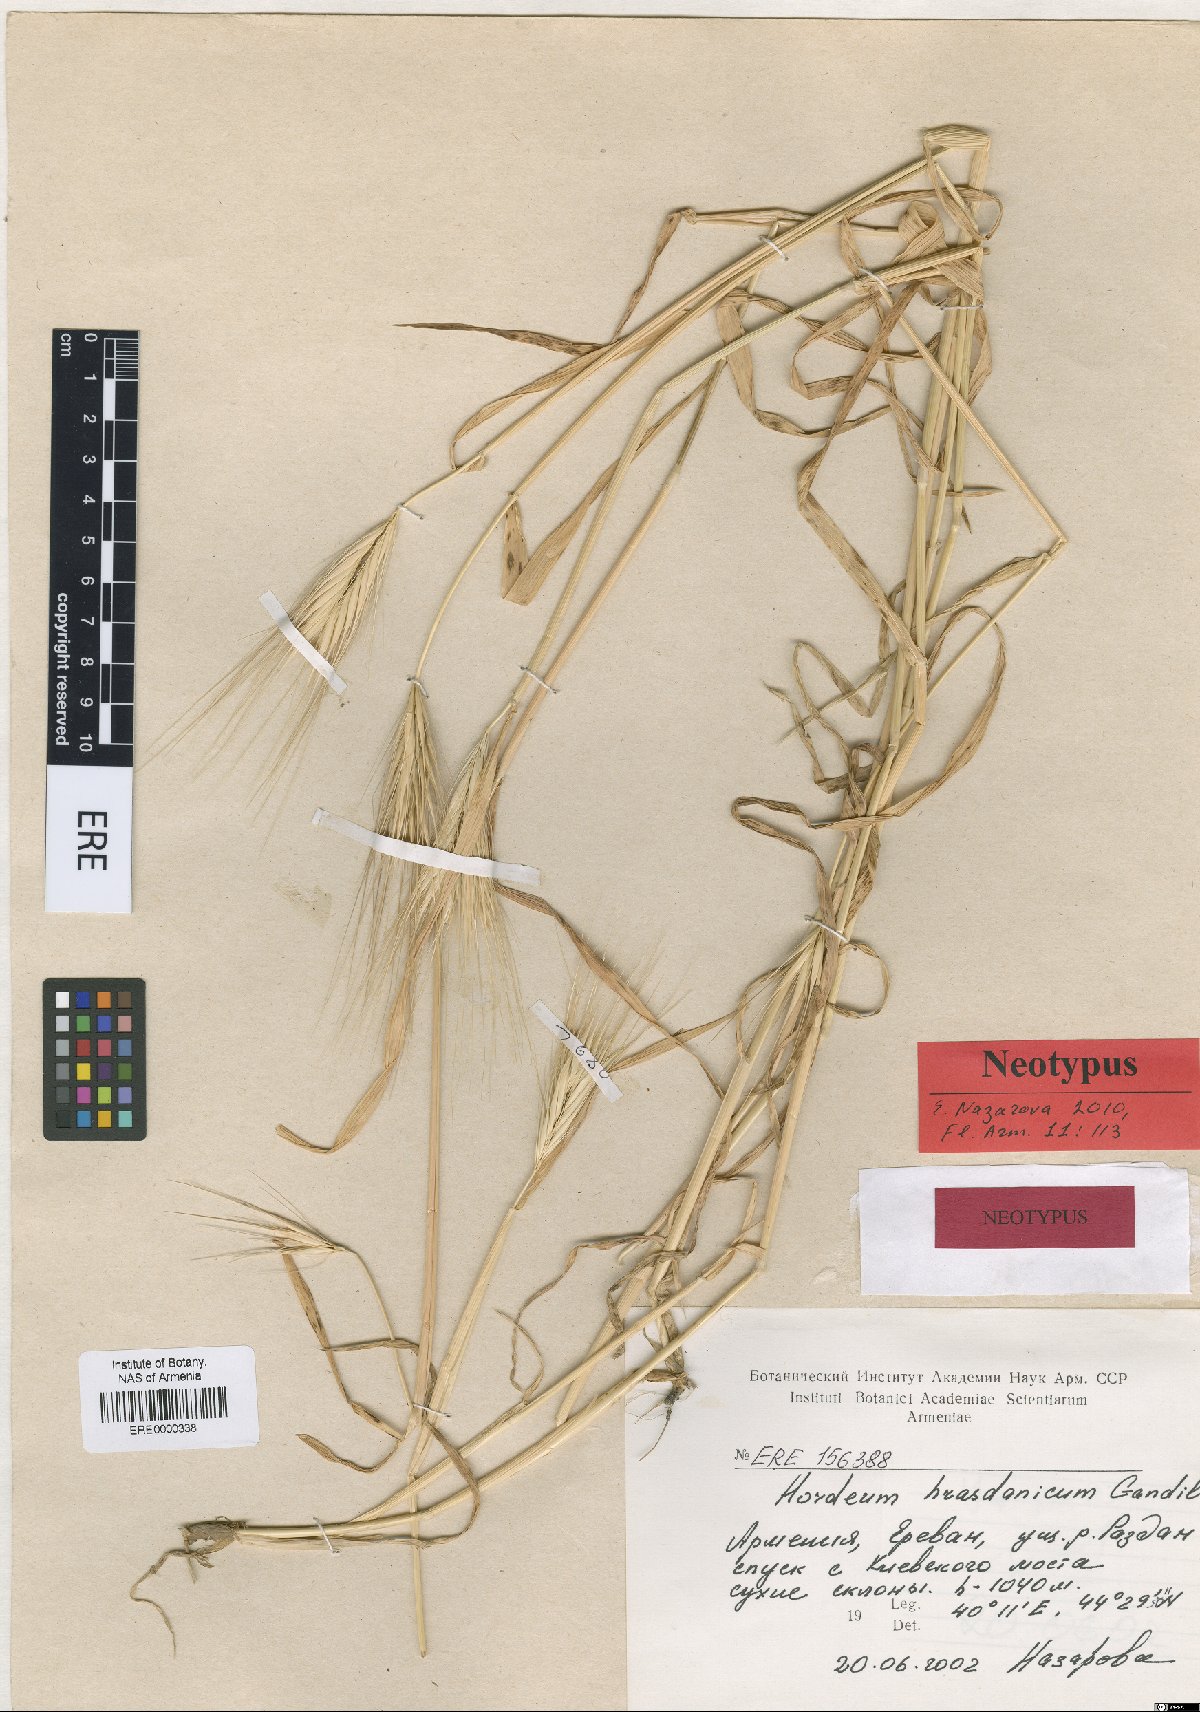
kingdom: Plantae
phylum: Tracheophyta
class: Liliopsida
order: Poales
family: Poaceae
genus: Hordeum
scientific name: Hordeum murinum
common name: Wall barley
